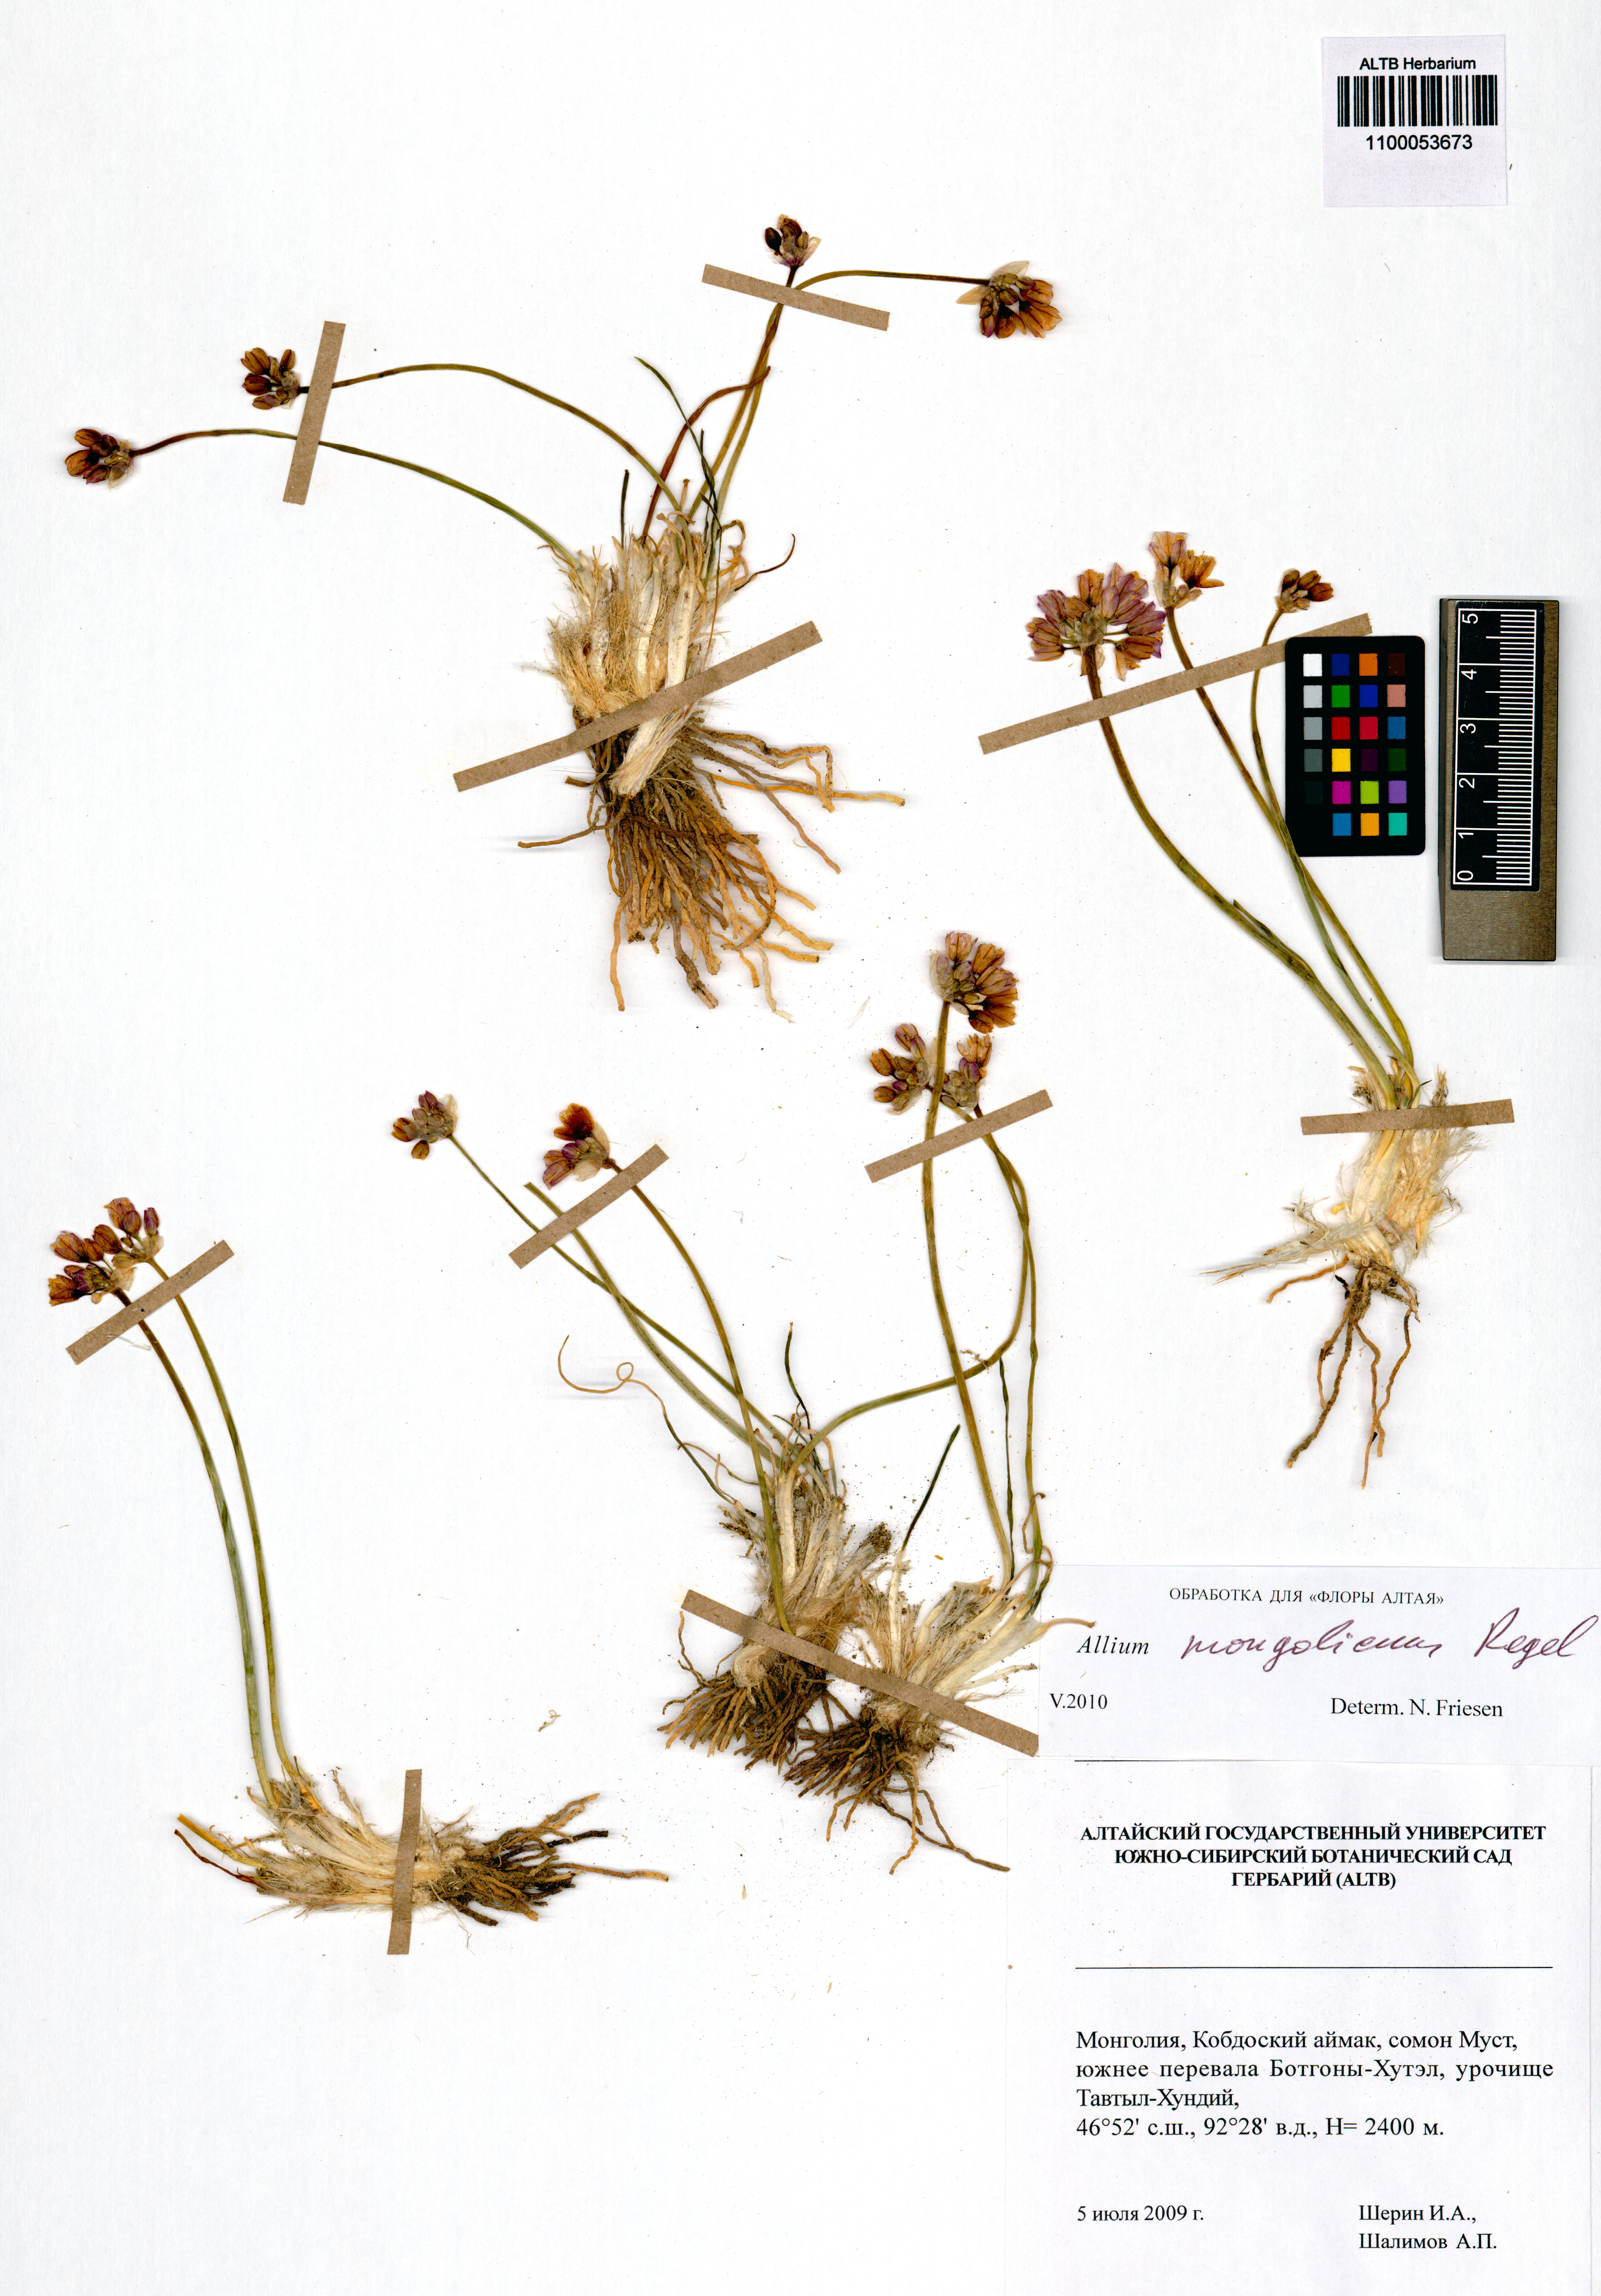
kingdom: Plantae
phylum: Tracheophyta
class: Liliopsida
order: Asparagales
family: Amaryllidaceae
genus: Allium
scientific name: Allium mongolicum
